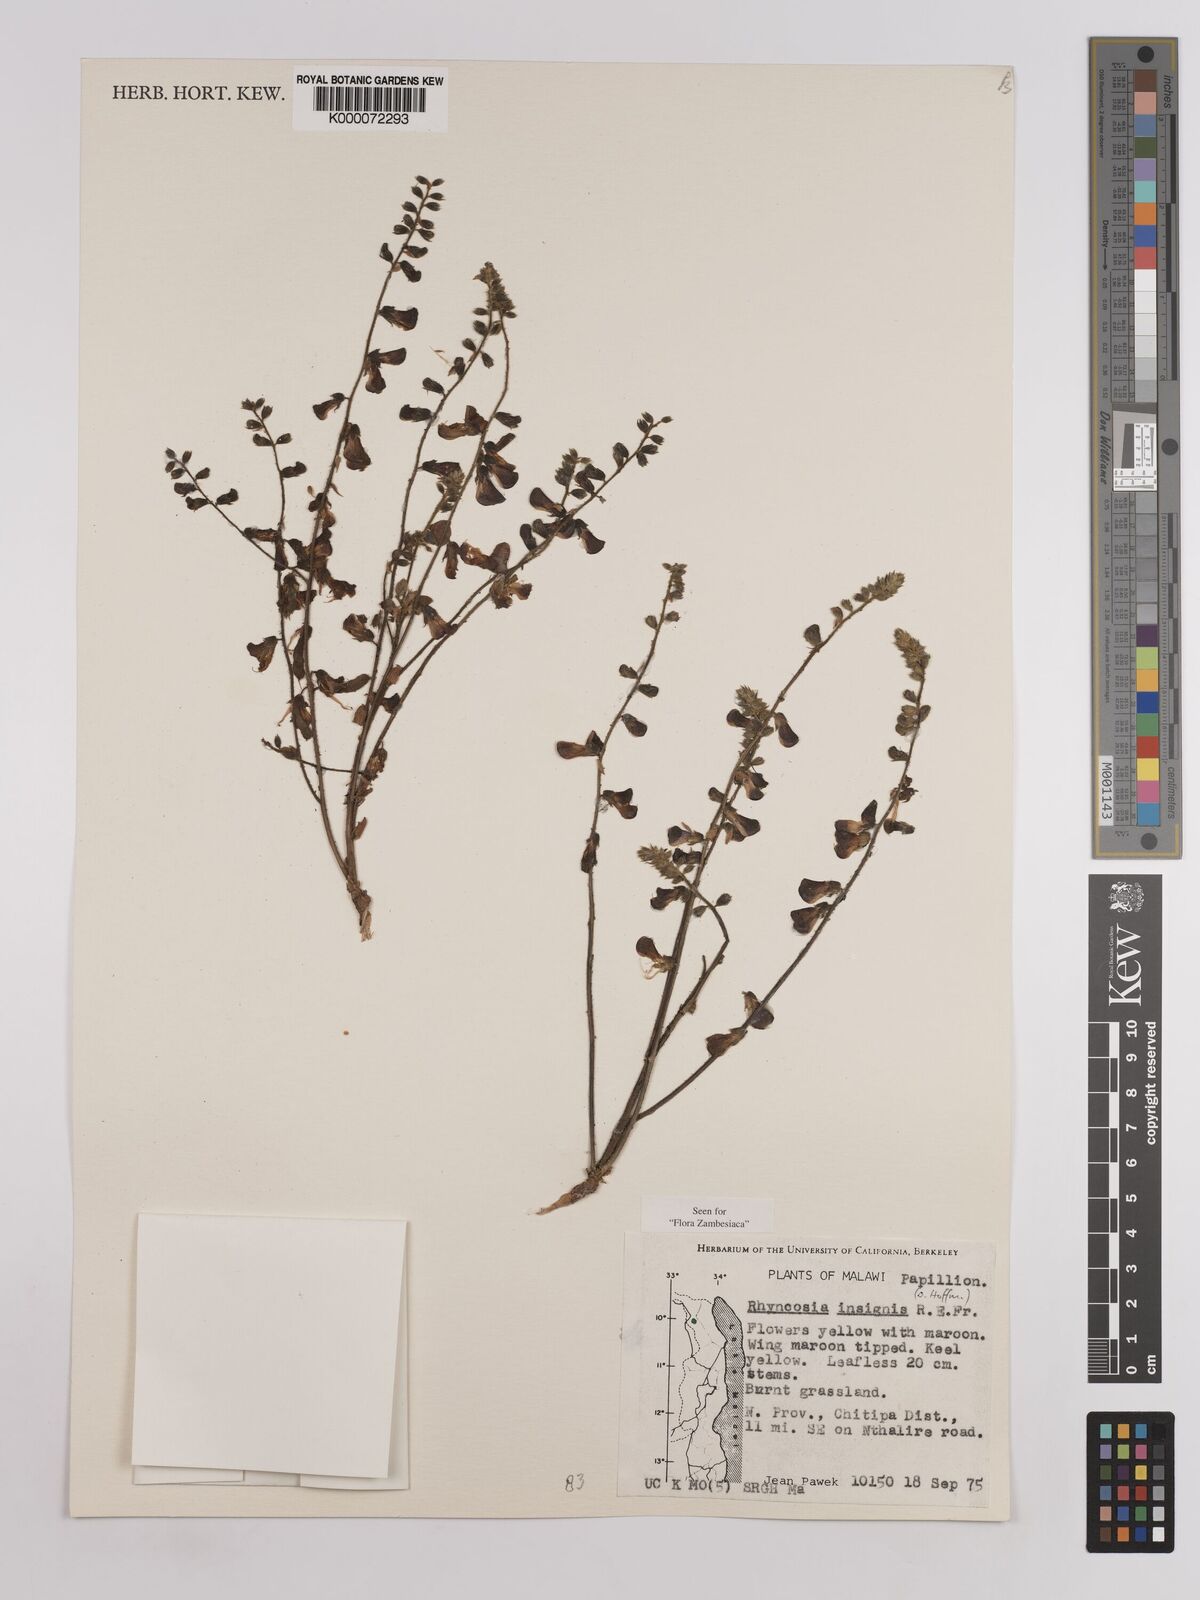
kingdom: Plantae
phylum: Tracheophyta
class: Magnoliopsida
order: Fabales
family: Fabaceae
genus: Rhynchosia
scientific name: Rhynchosia insignis
